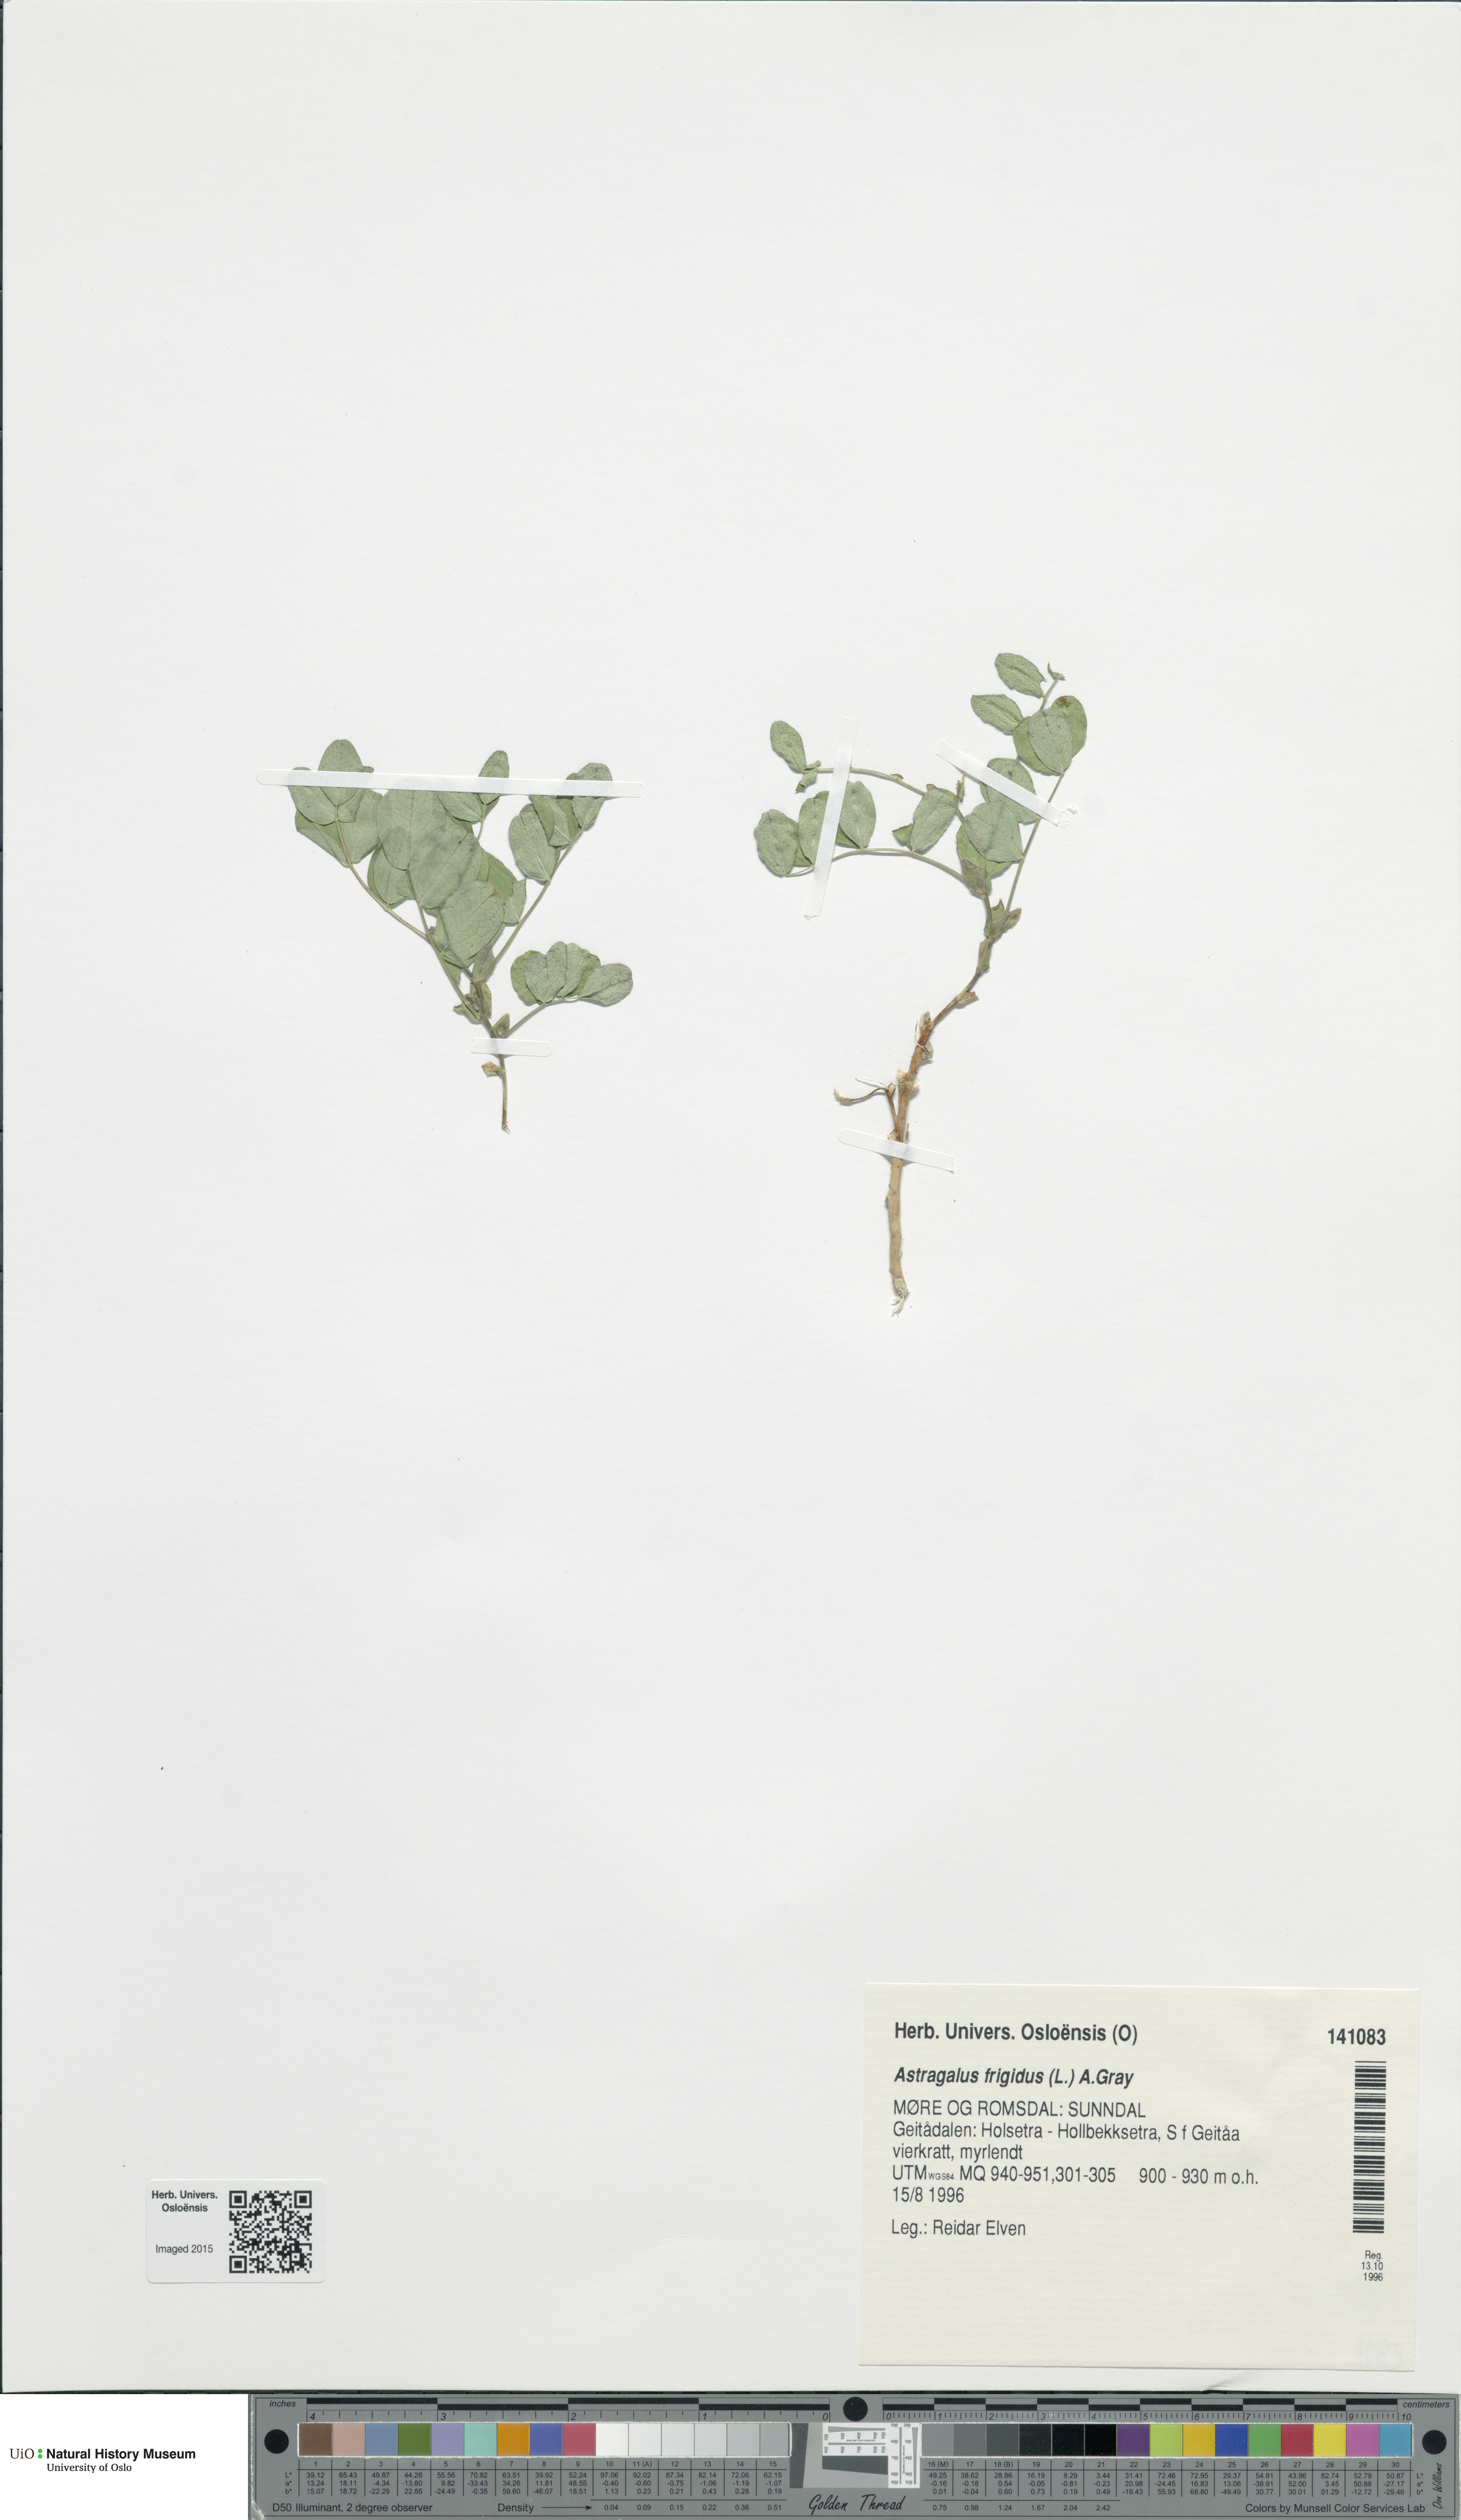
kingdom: Plantae
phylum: Tracheophyta
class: Magnoliopsida
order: Fabales
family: Fabaceae
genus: Astragalus
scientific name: Astragalus frigidus
